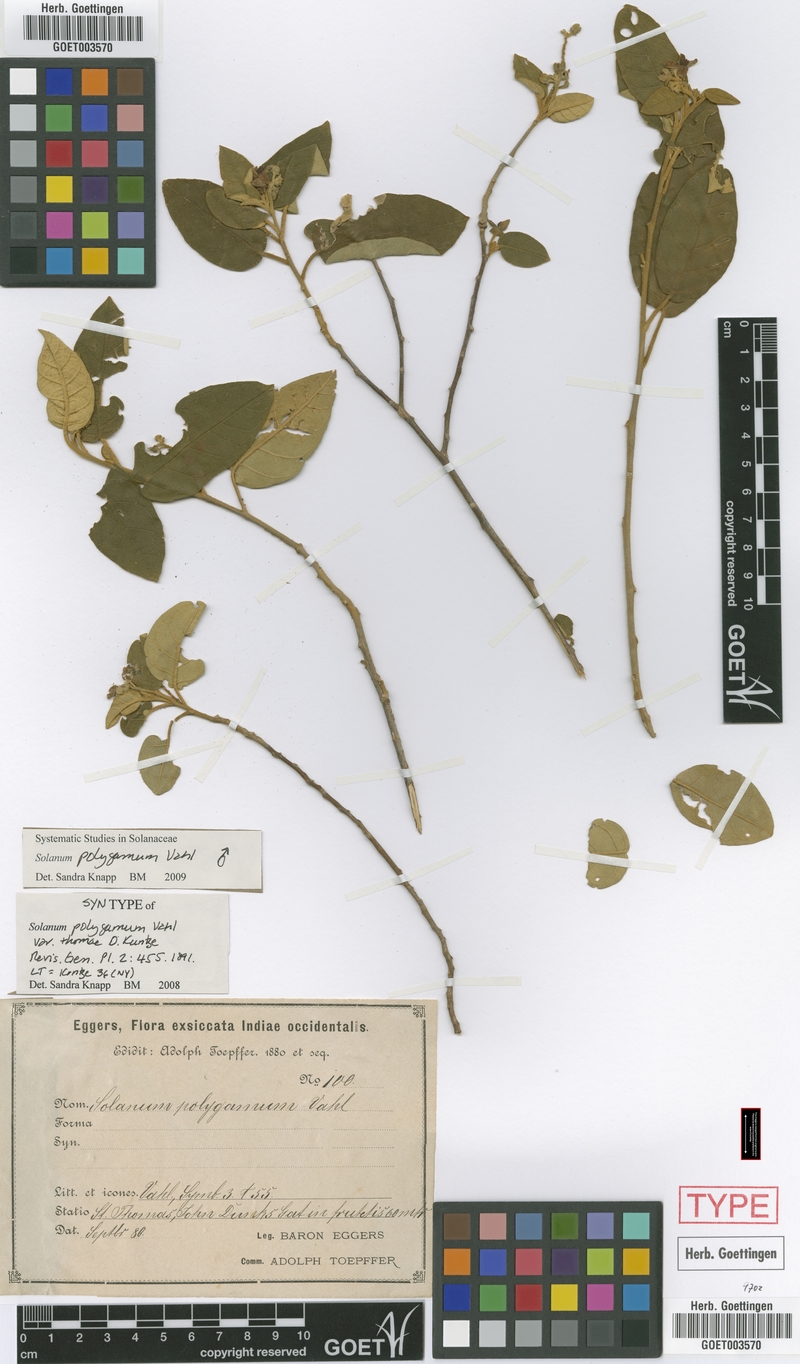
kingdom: Plantae
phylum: Tracheophyta
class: Magnoliopsida
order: Solanales
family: Solanaceae
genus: Solanum
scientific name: Solanum polygamum
